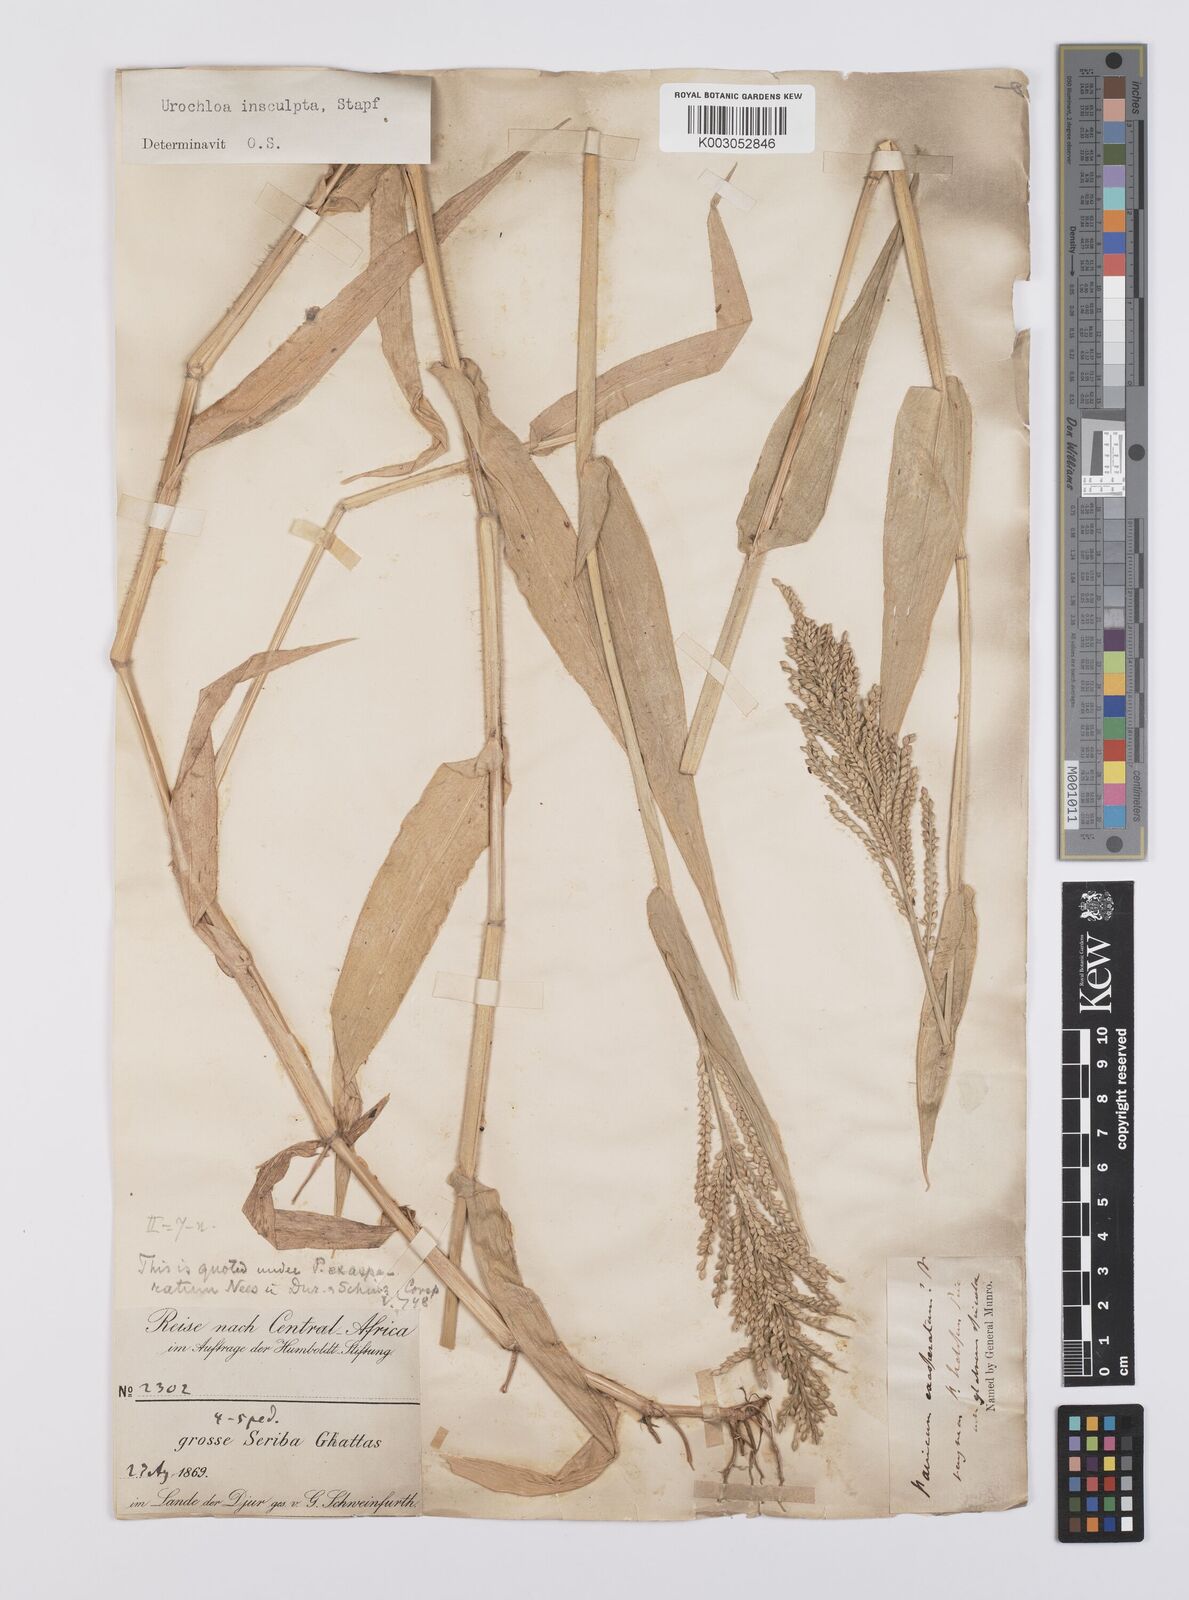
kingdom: Plantae
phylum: Tracheophyta
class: Liliopsida
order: Poales
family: Poaceae
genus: Urochloa
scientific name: Urochloa lata
